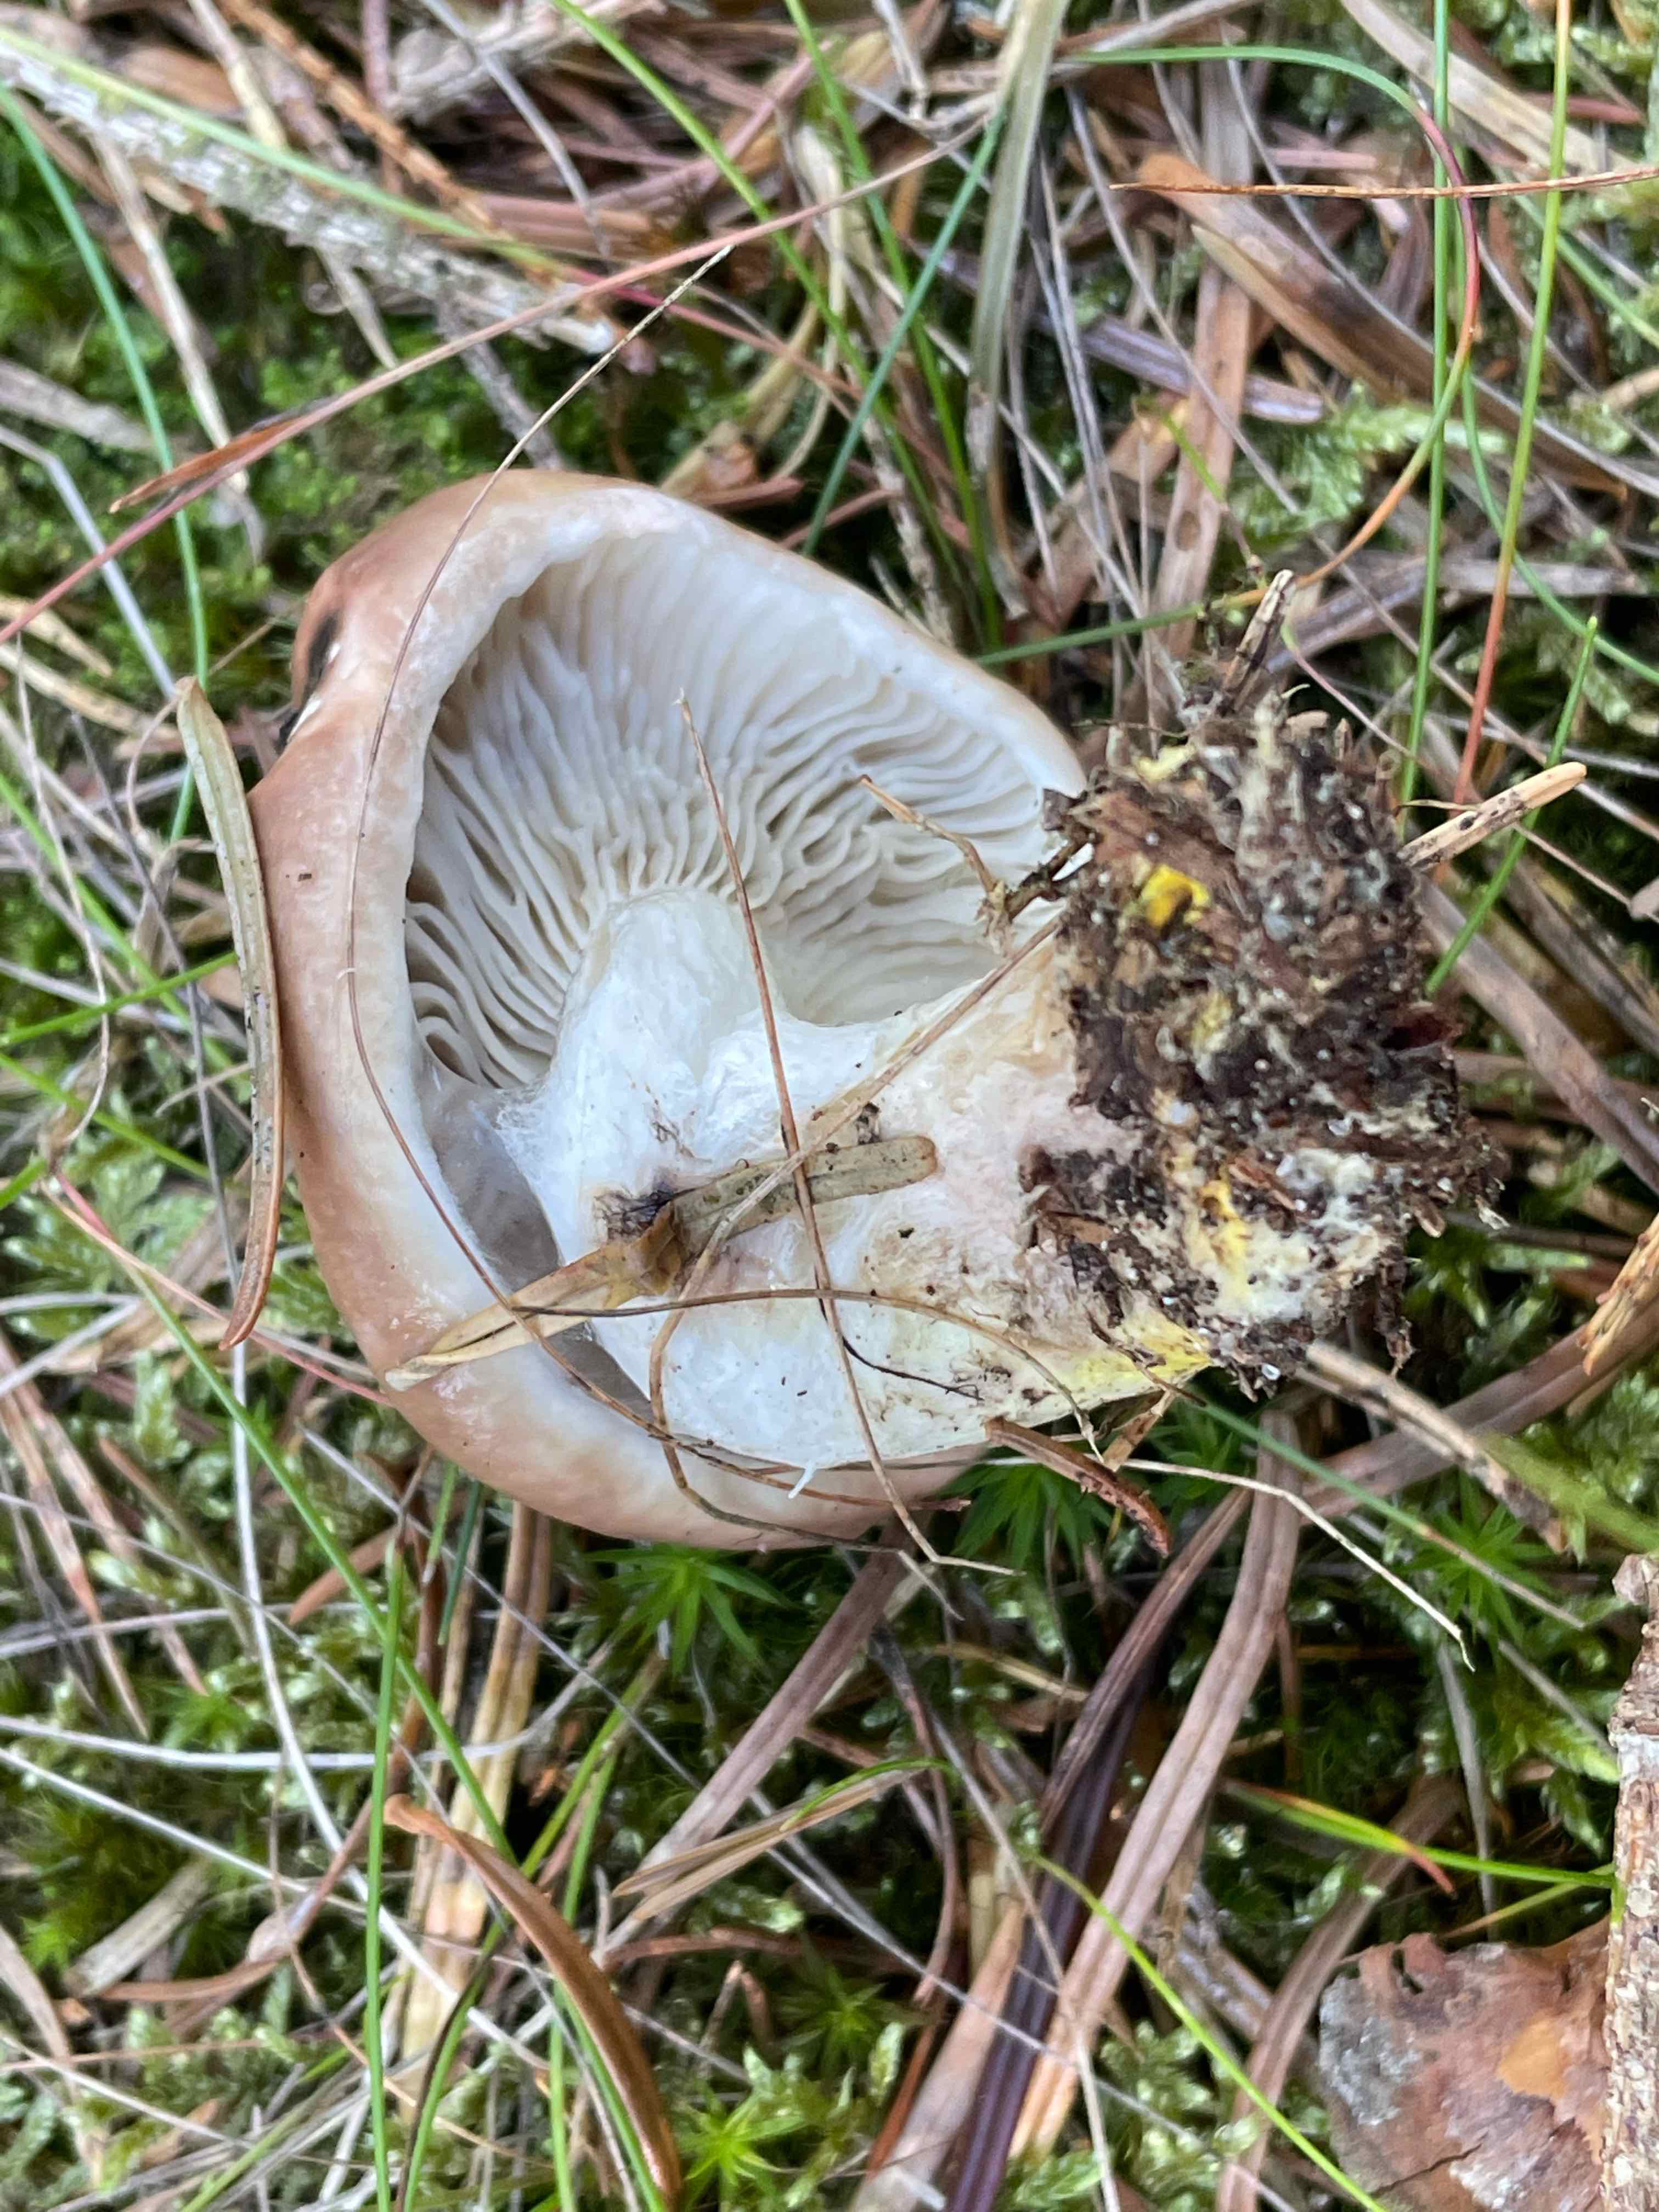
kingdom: Fungi
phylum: Basidiomycota
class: Agaricomycetes
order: Boletales
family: Gomphidiaceae
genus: Gomphidius
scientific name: Gomphidius glutinosus
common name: grå slimslør
